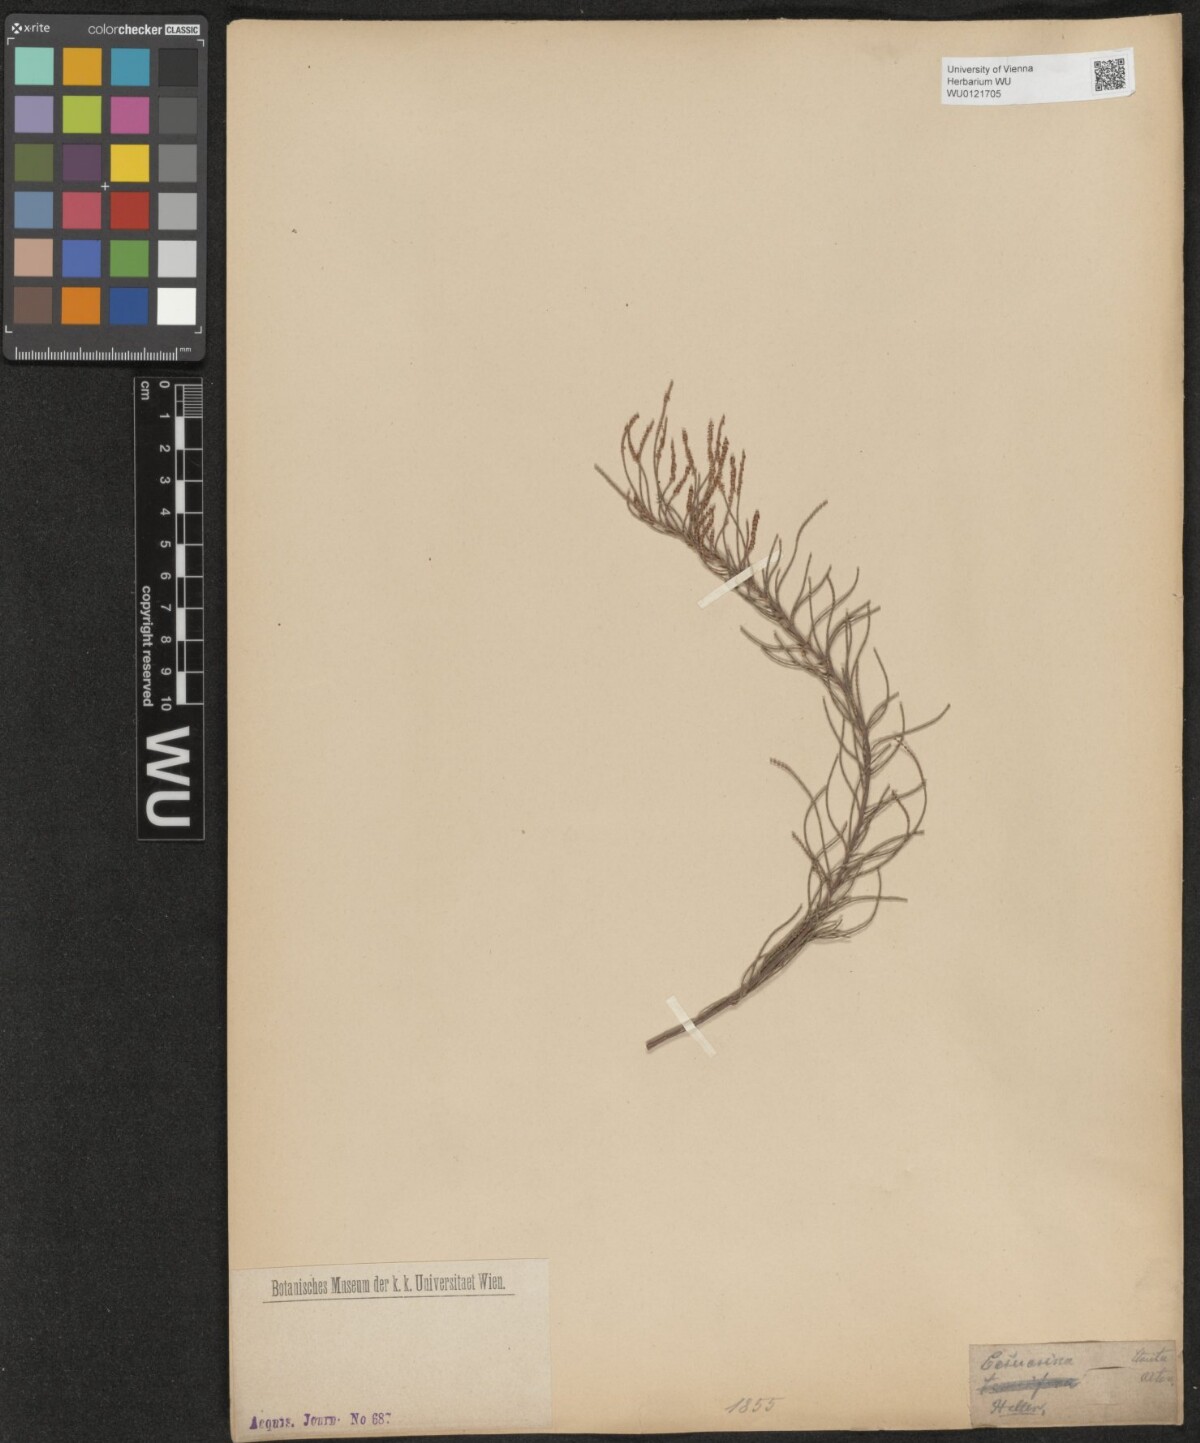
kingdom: Plantae
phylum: Tracheophyta
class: Magnoliopsida
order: Fagales
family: Casuarinaceae
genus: Casuarina
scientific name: Casuarina stricta
